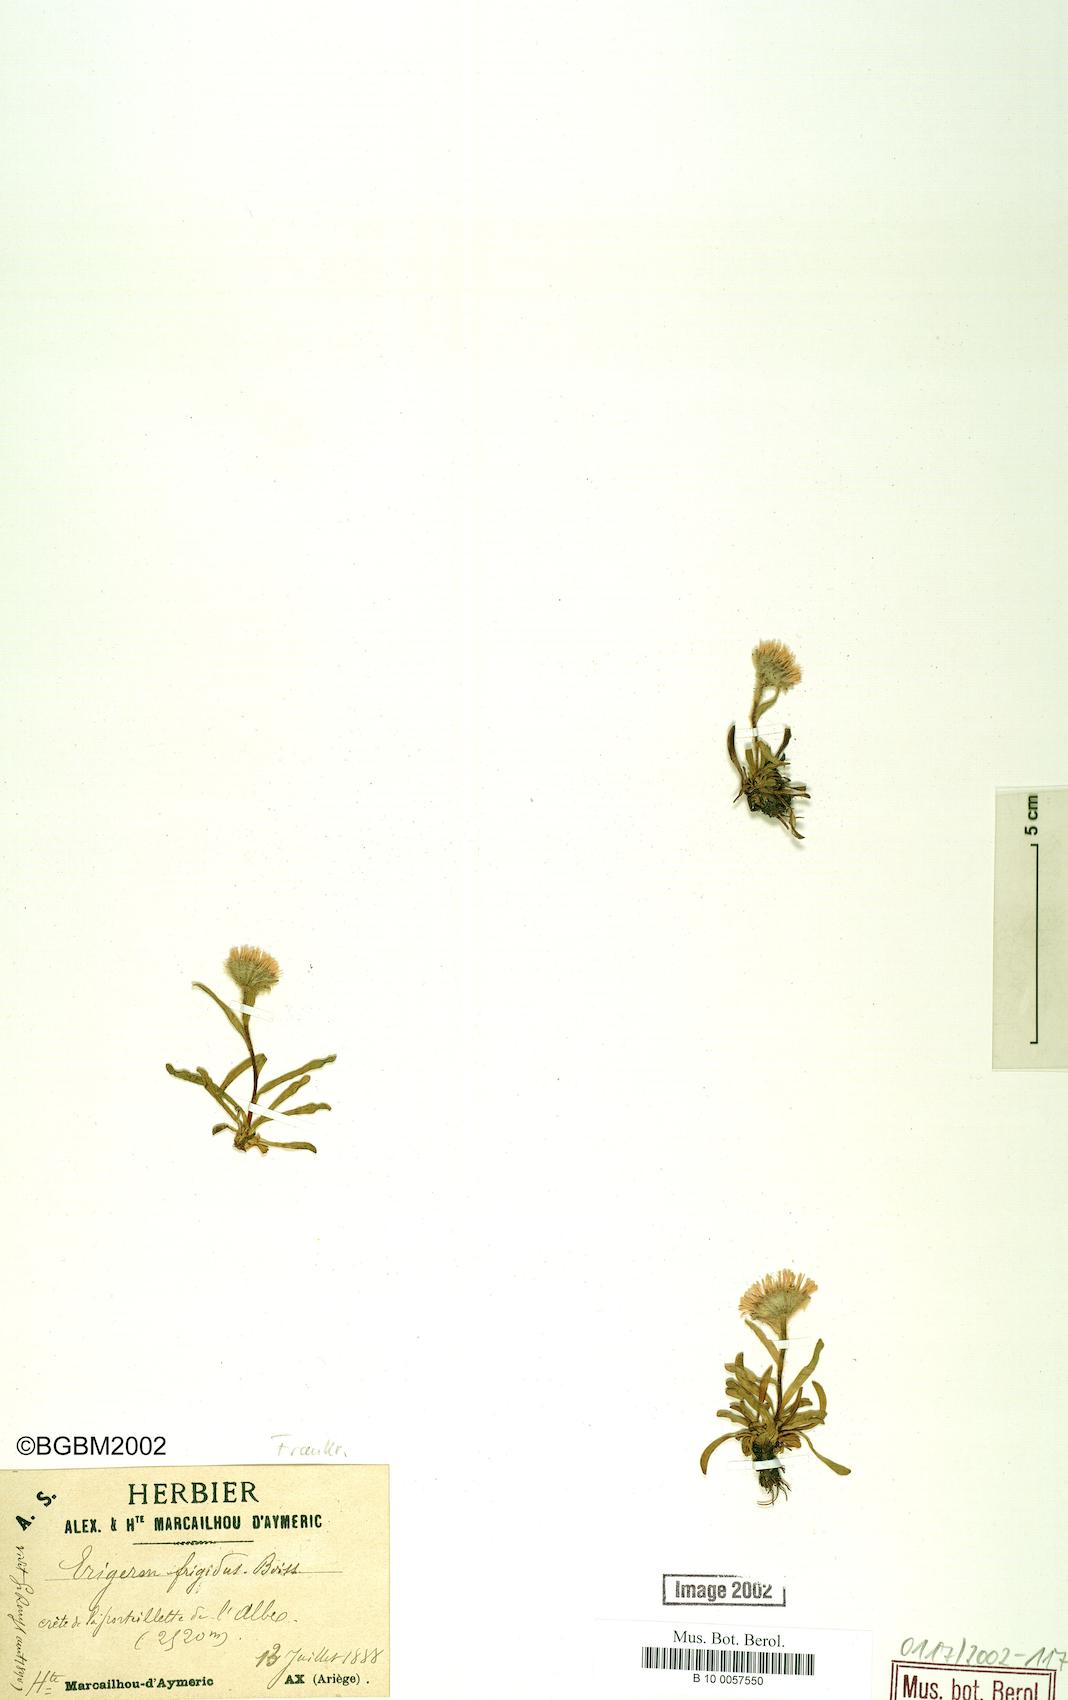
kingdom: Plantae
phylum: Tracheophyta
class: Magnoliopsida
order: Asterales
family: Asteraceae
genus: Erigeron
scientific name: Erigeron aragonensis
